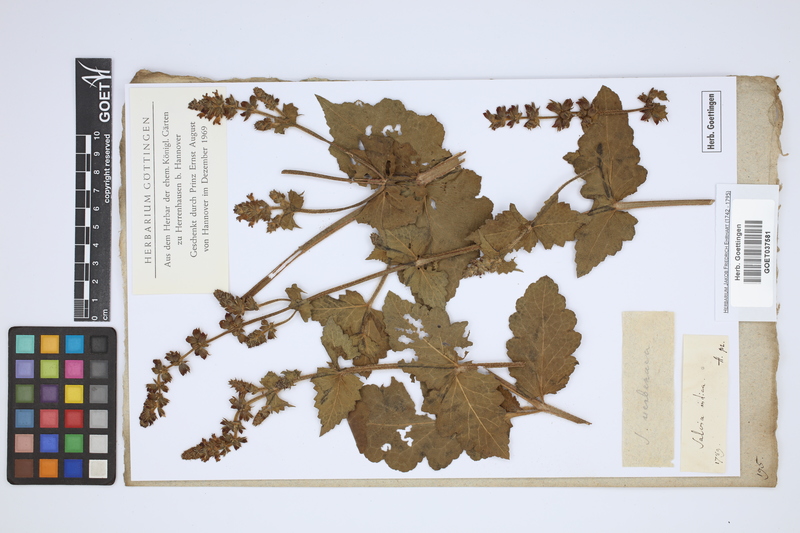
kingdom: Plantae
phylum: Tracheophyta
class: Magnoliopsida
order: Lamiales
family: Lamiaceae
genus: Salvia
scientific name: Salvia indica
